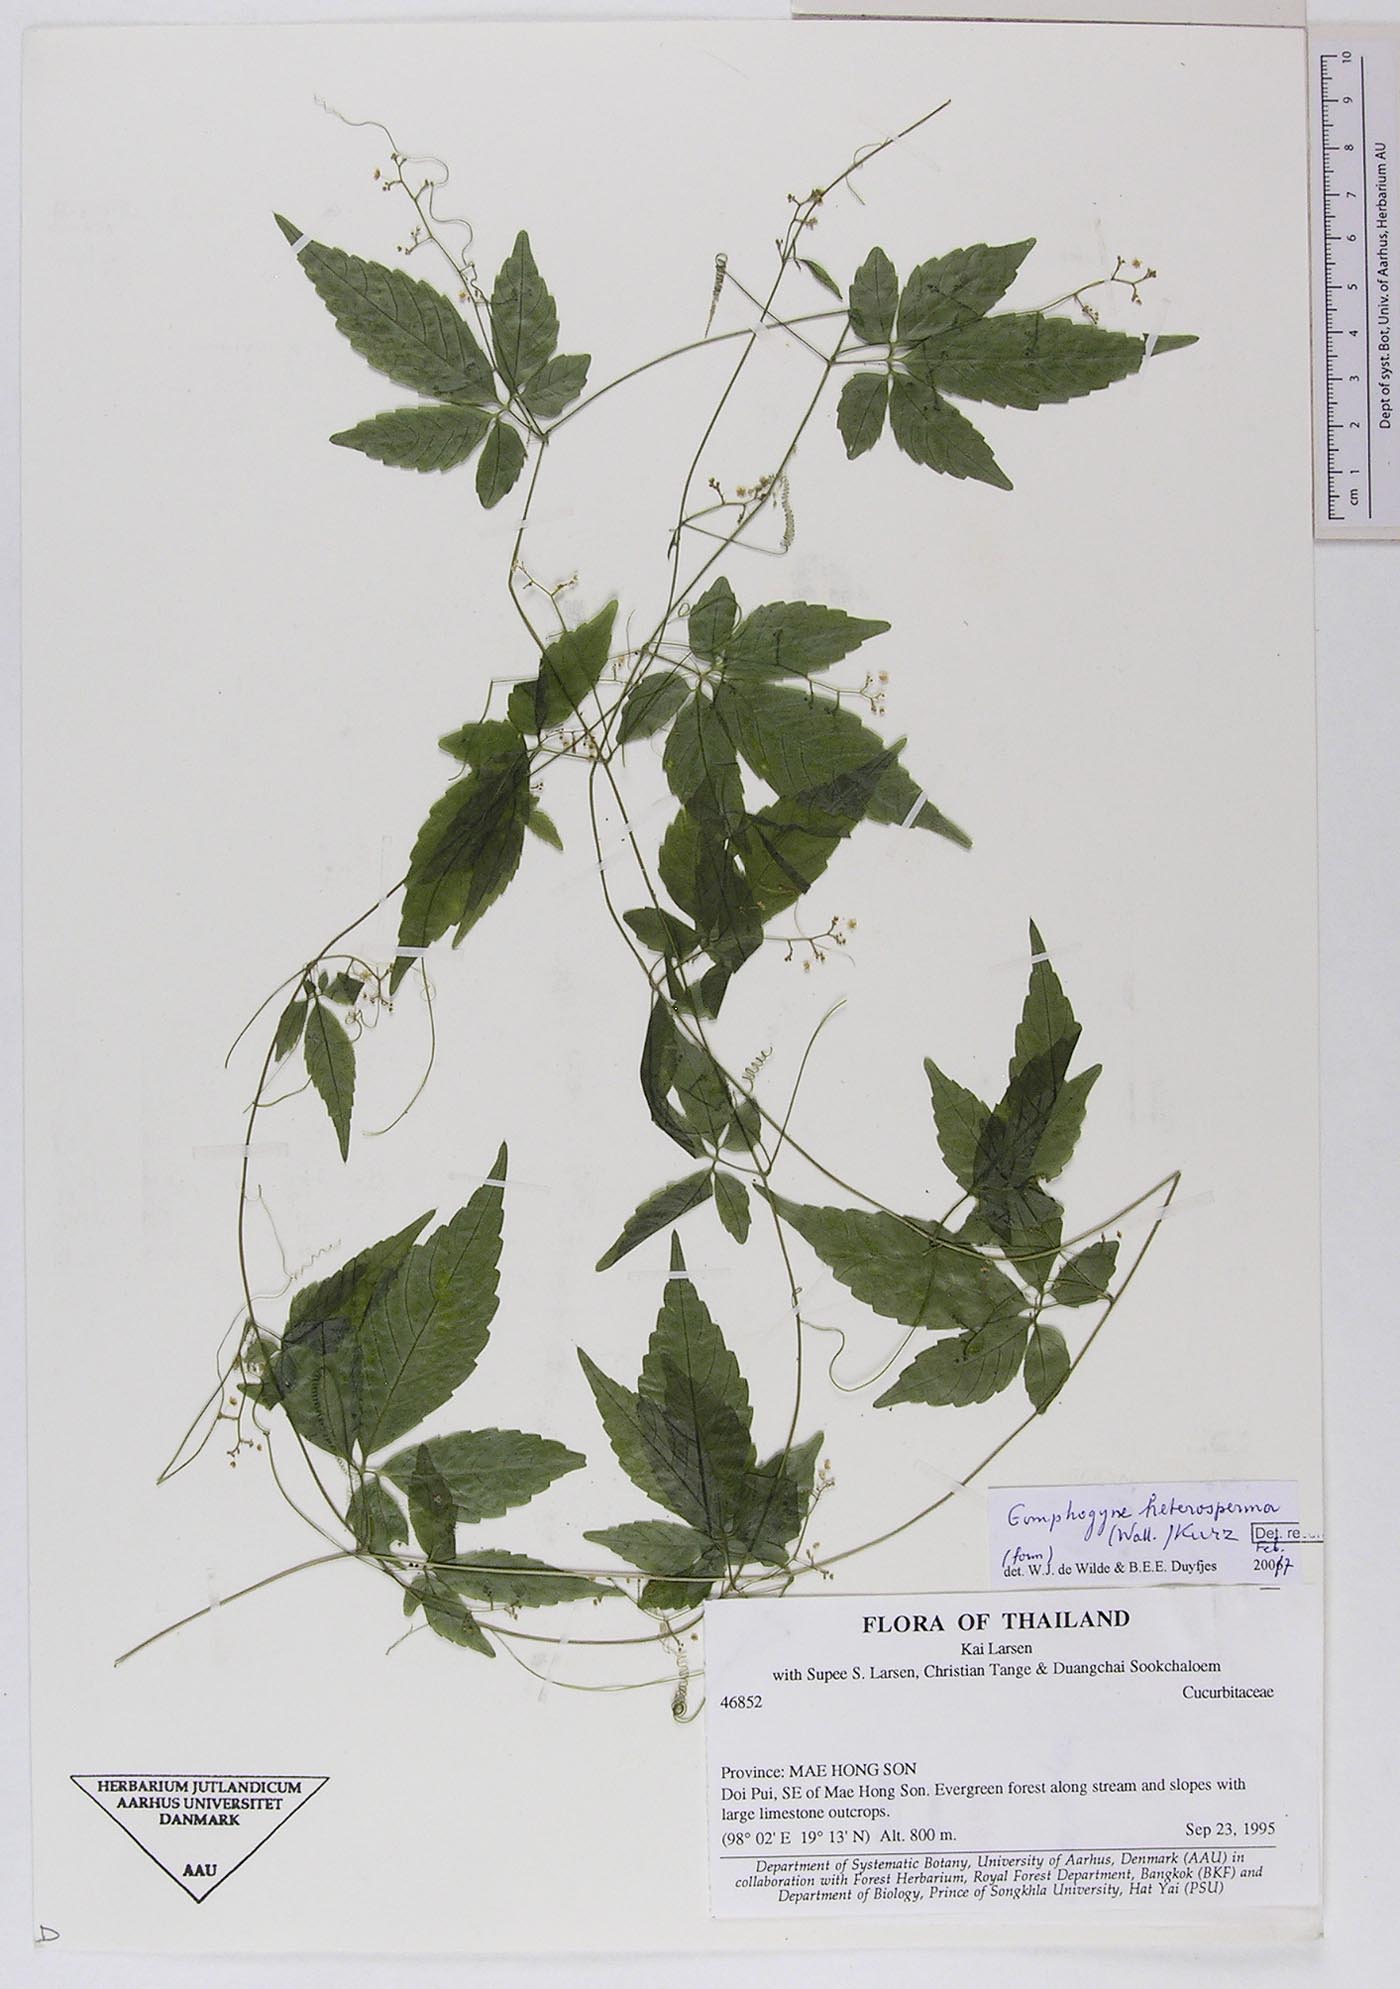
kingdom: Plantae
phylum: Tracheophyta
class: Magnoliopsida
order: Cucurbitales
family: Cucurbitaceae
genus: Gomphogyne
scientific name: Gomphogyne heterosperma
